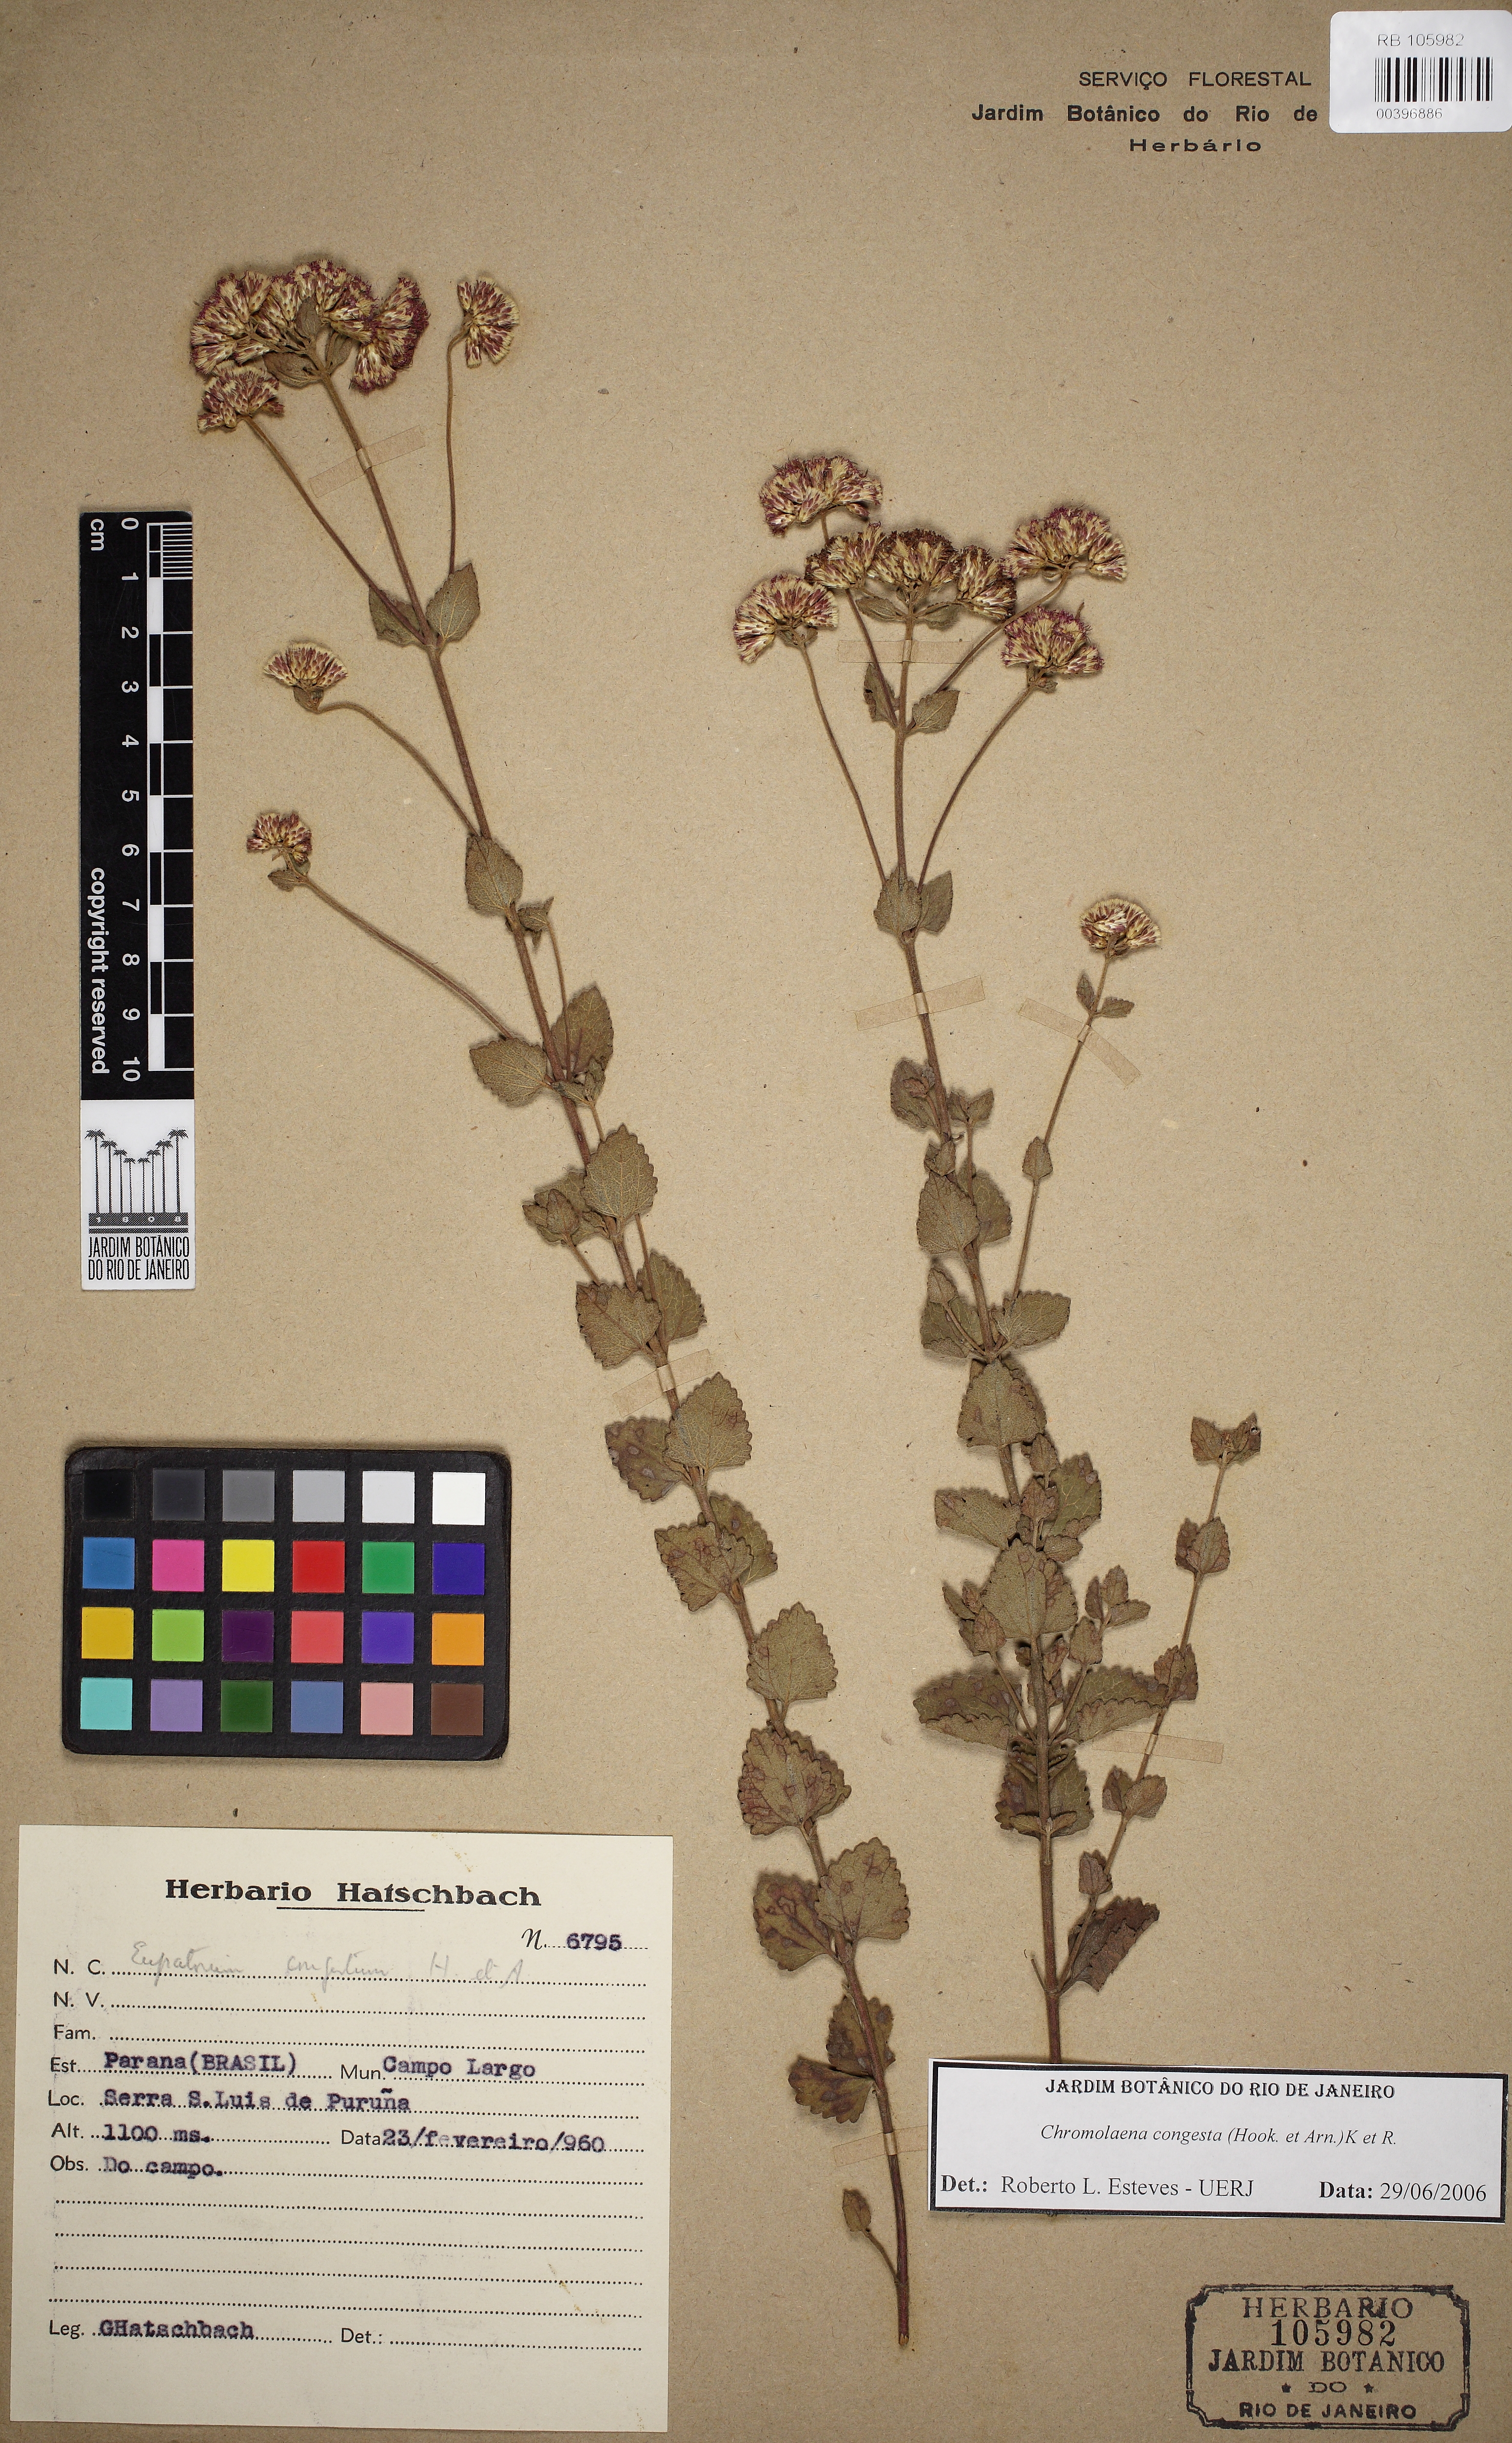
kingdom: Plantae
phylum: Tracheophyta
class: Magnoliopsida
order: Asterales
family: Asteraceae
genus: Chromolaena
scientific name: Chromolaena congesta
